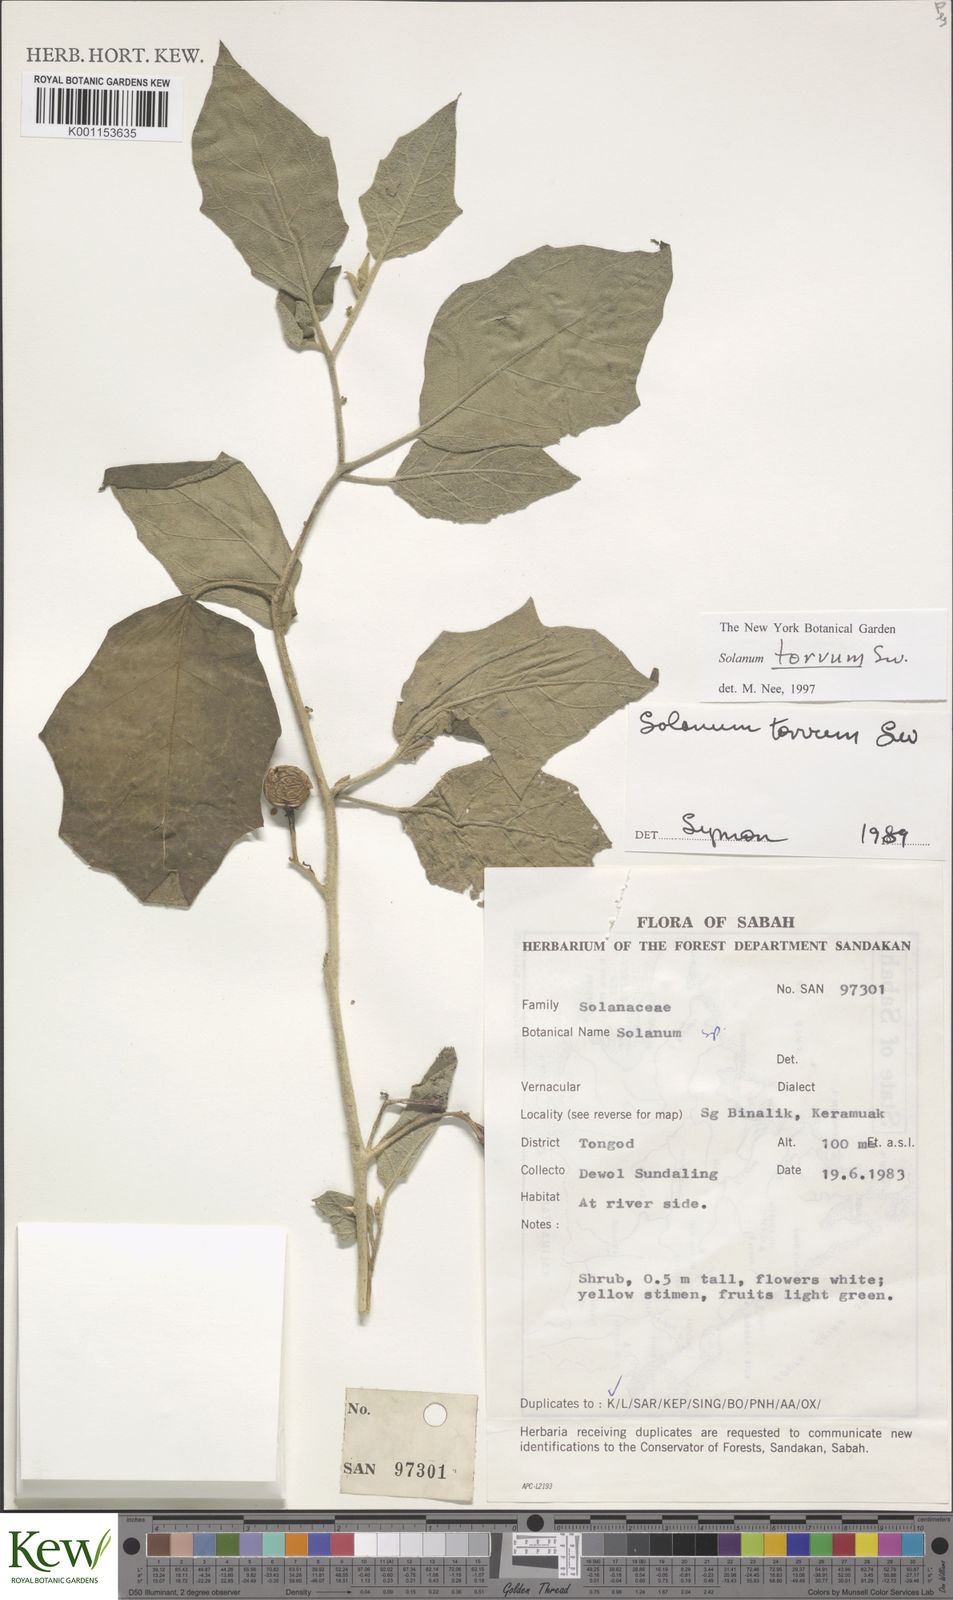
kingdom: Plantae
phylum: Tracheophyta
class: Magnoliopsida
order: Solanales
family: Solanaceae
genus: Solanum
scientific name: Solanum torvum
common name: Turkey berry
